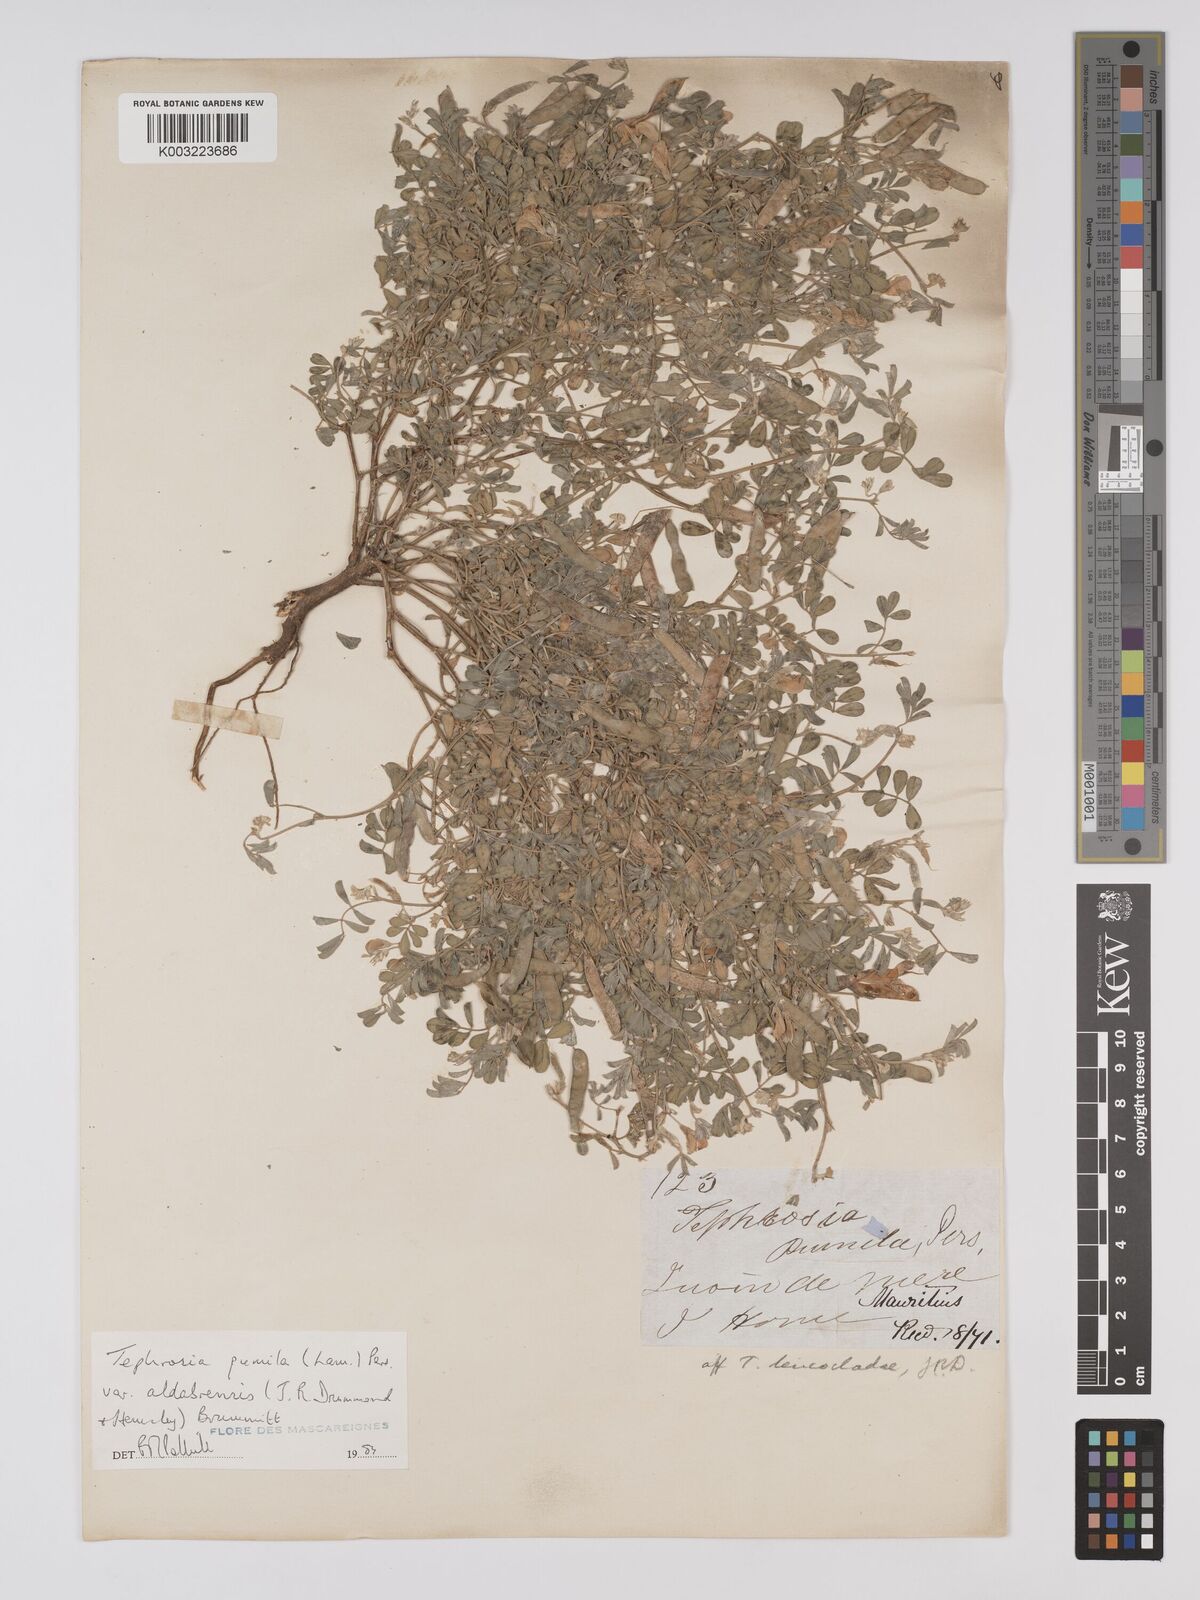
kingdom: Plantae
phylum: Tracheophyta
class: Magnoliopsida
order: Fabales
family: Fabaceae
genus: Tephrosia
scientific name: Tephrosia pumila
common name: Indigo sauvage
